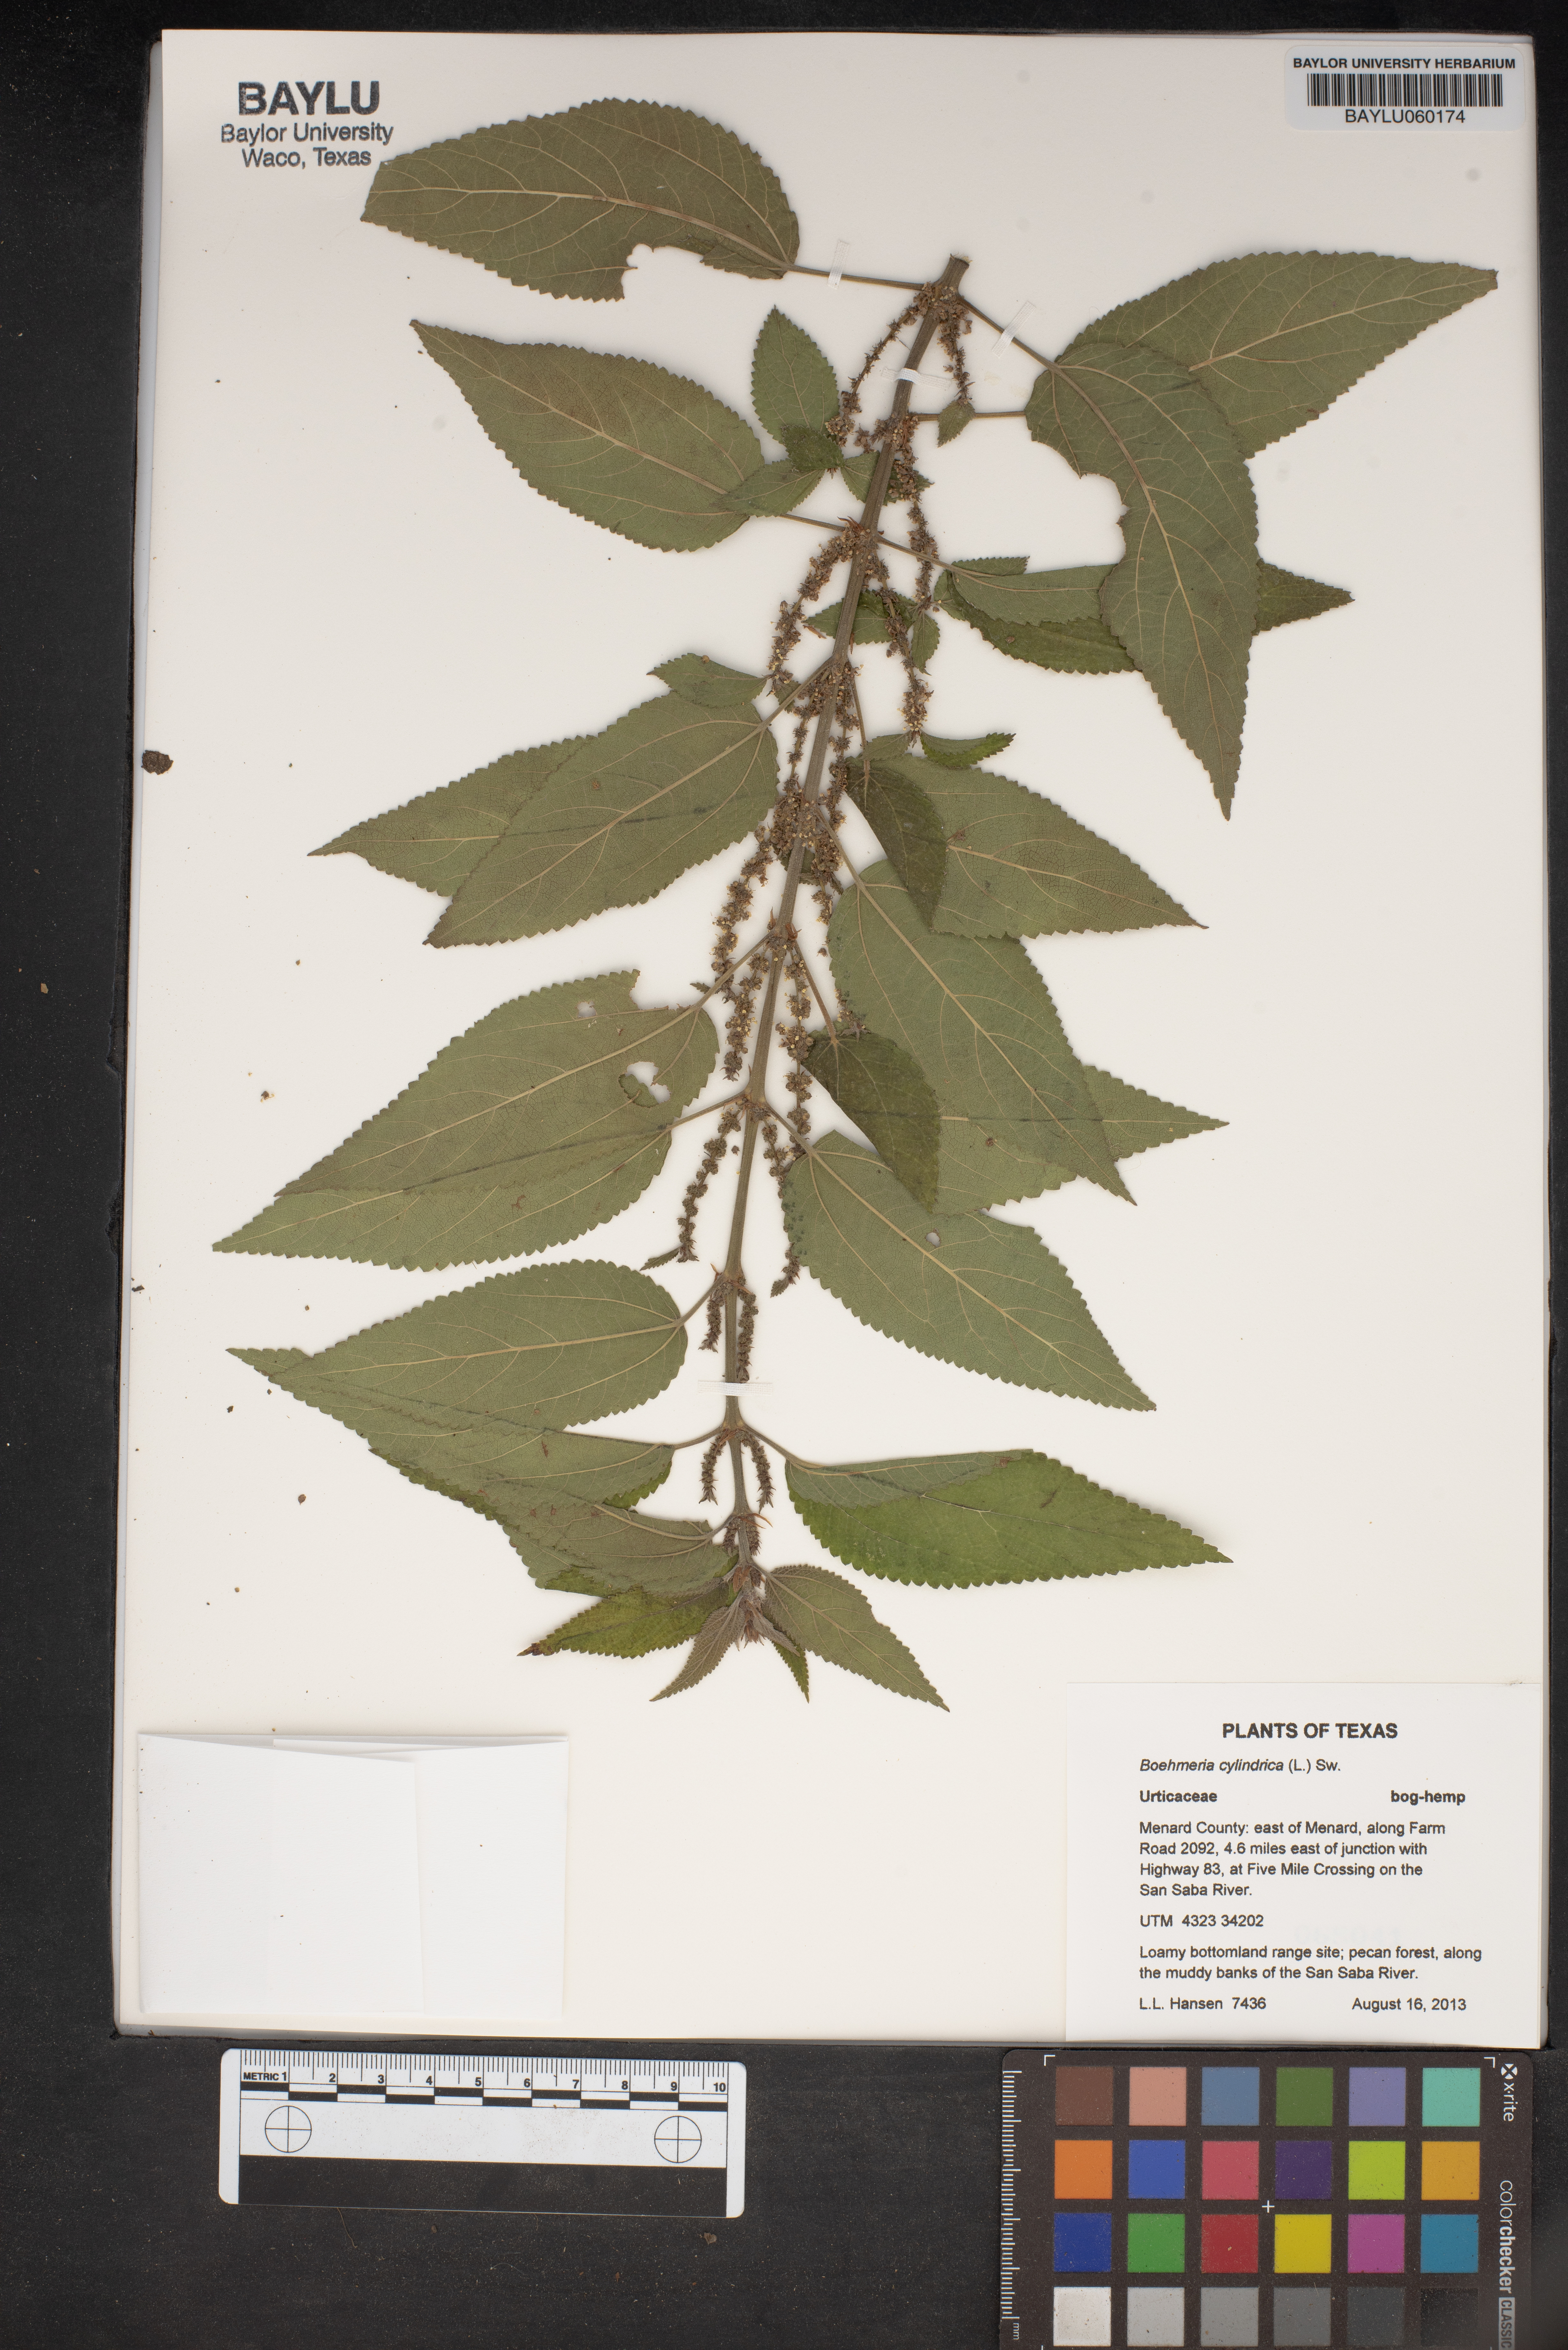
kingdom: Plantae
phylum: Tracheophyta
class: Magnoliopsida
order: Rosales
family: Urticaceae
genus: Boehmeria
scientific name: Boehmeria cylindrica
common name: Bog-hemp
